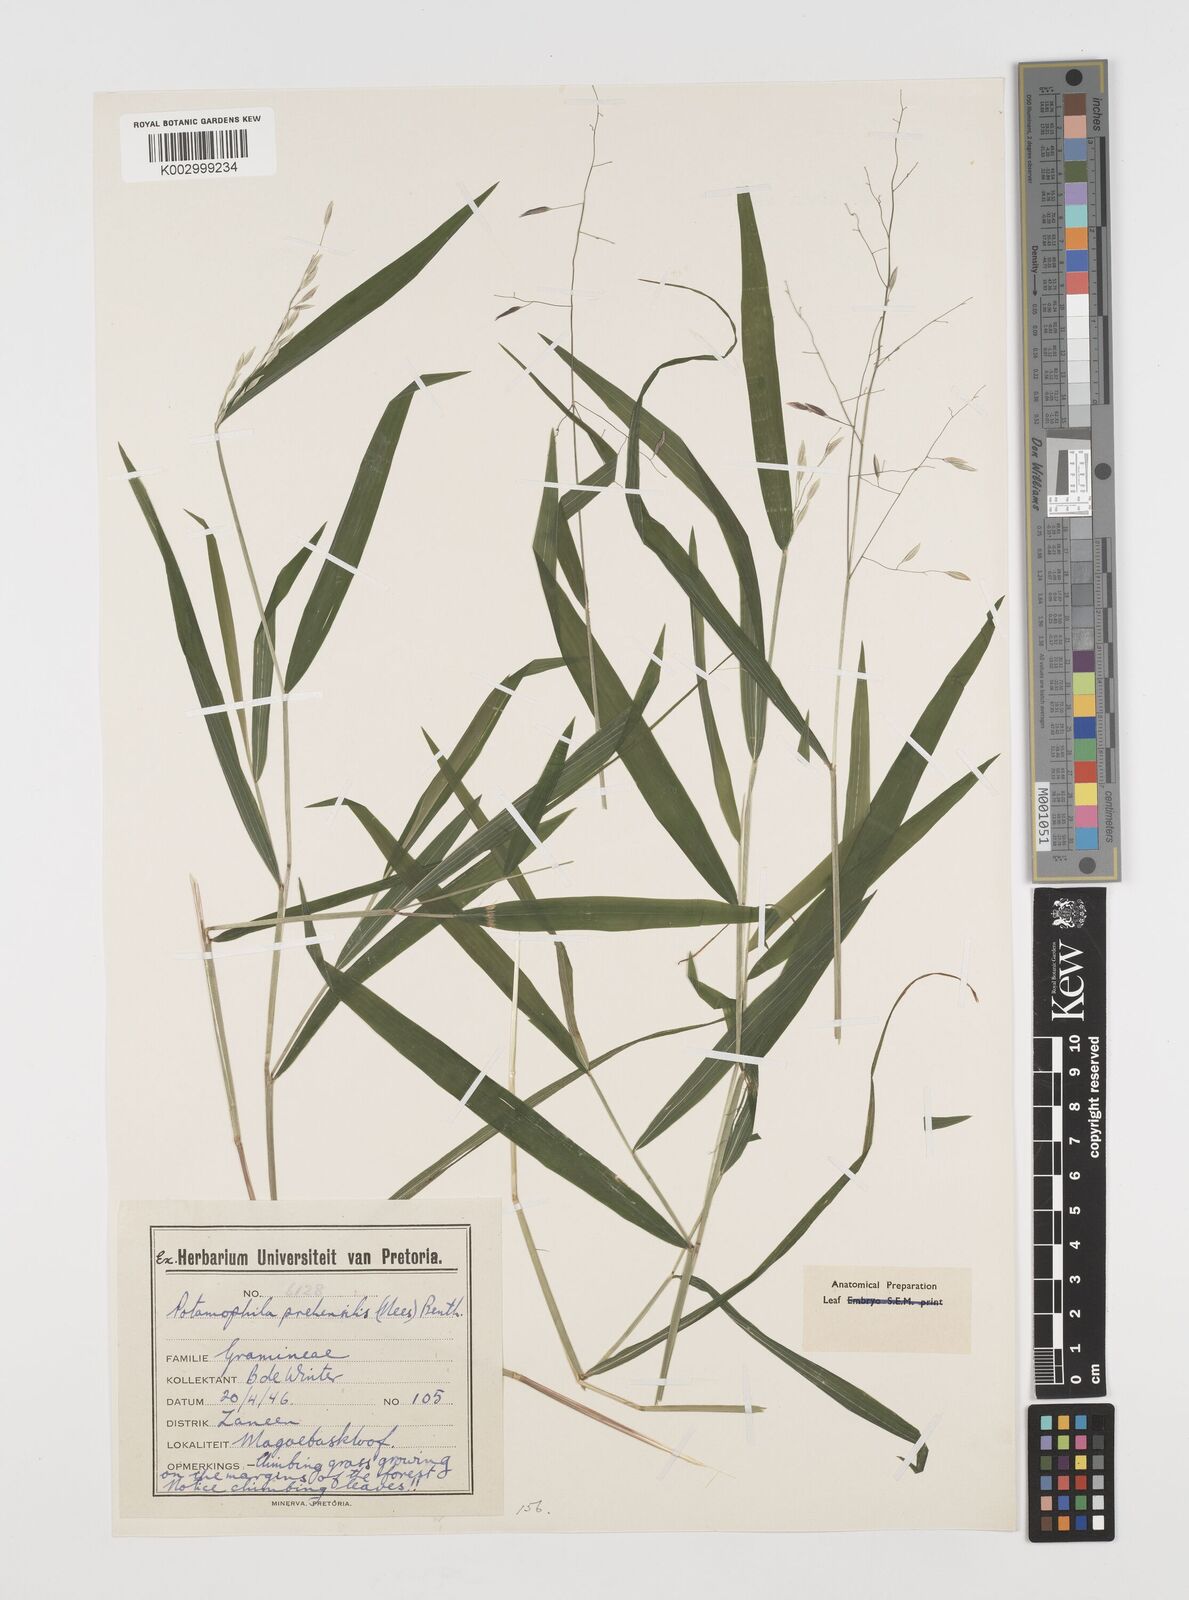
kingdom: Plantae
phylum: Tracheophyta
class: Liliopsida
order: Poales
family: Poaceae
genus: Prosphytochloa
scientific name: Prosphytochloa prehensilis
